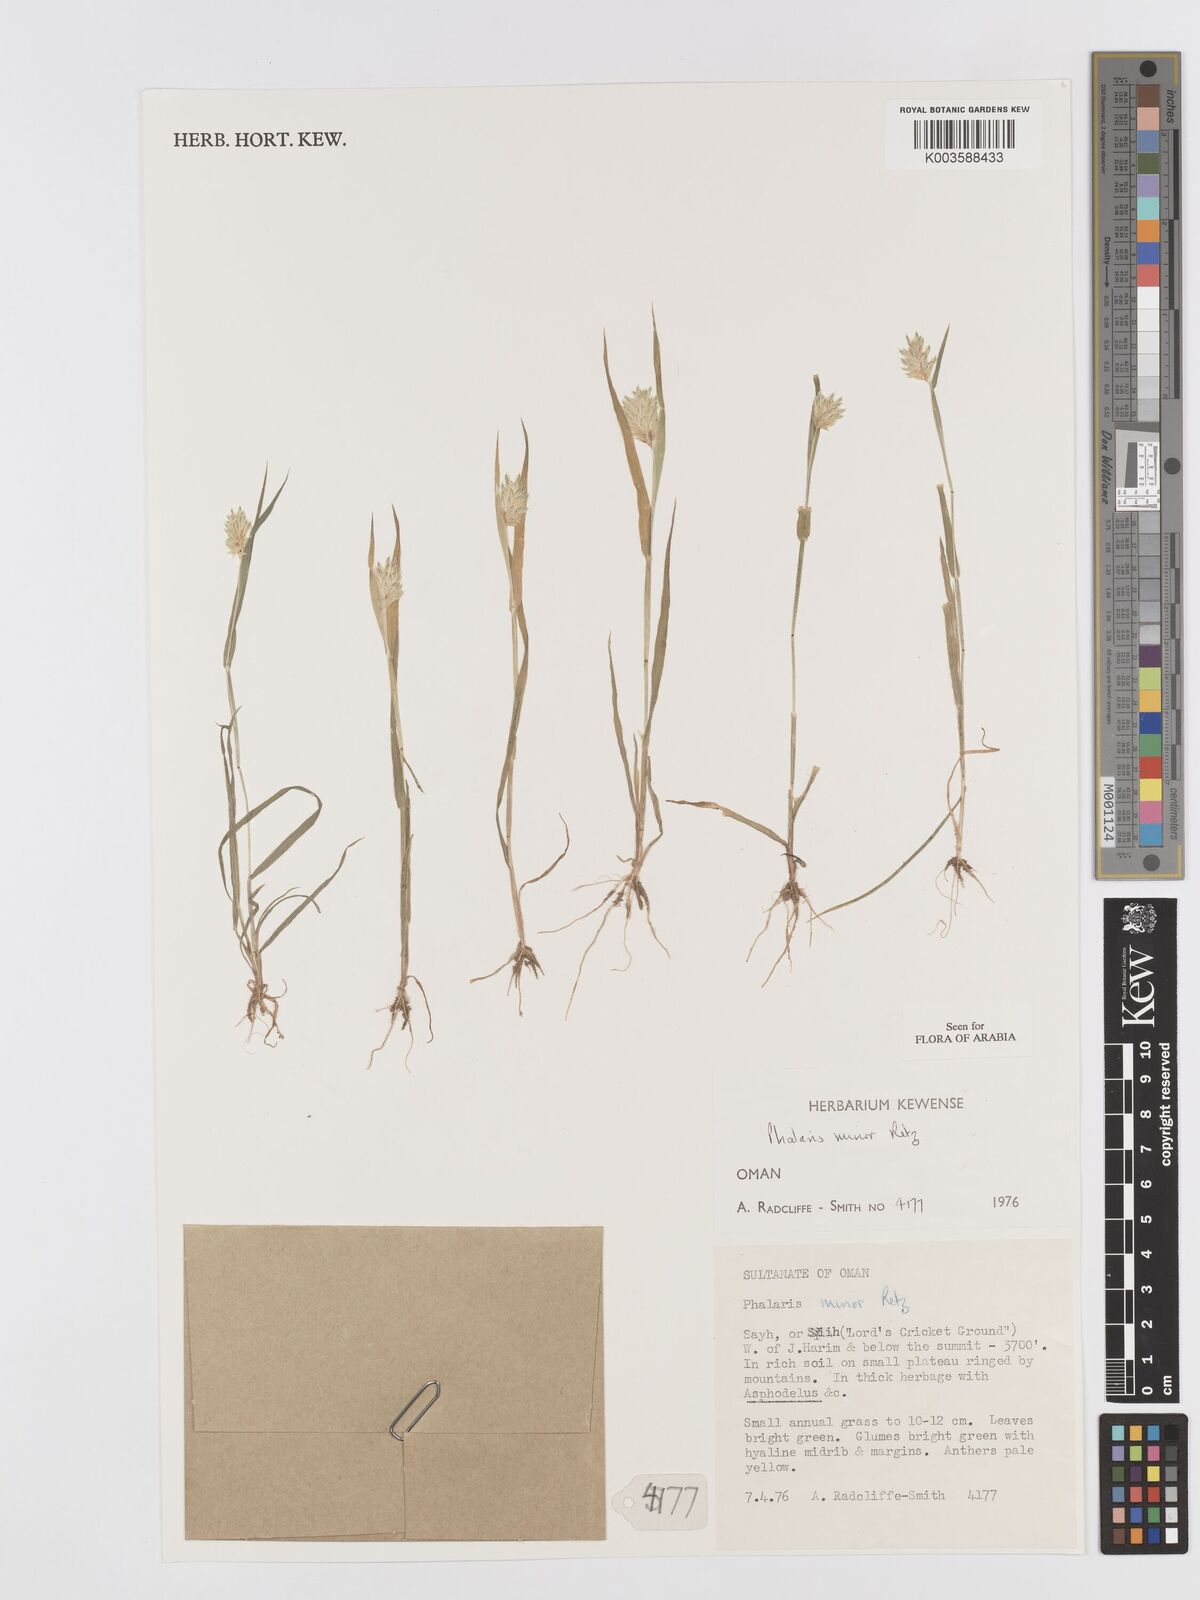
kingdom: Plantae
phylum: Tracheophyta
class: Liliopsida
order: Poales
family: Poaceae
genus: Phalaris
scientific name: Phalaris minor
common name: Littleseed canarygrass
